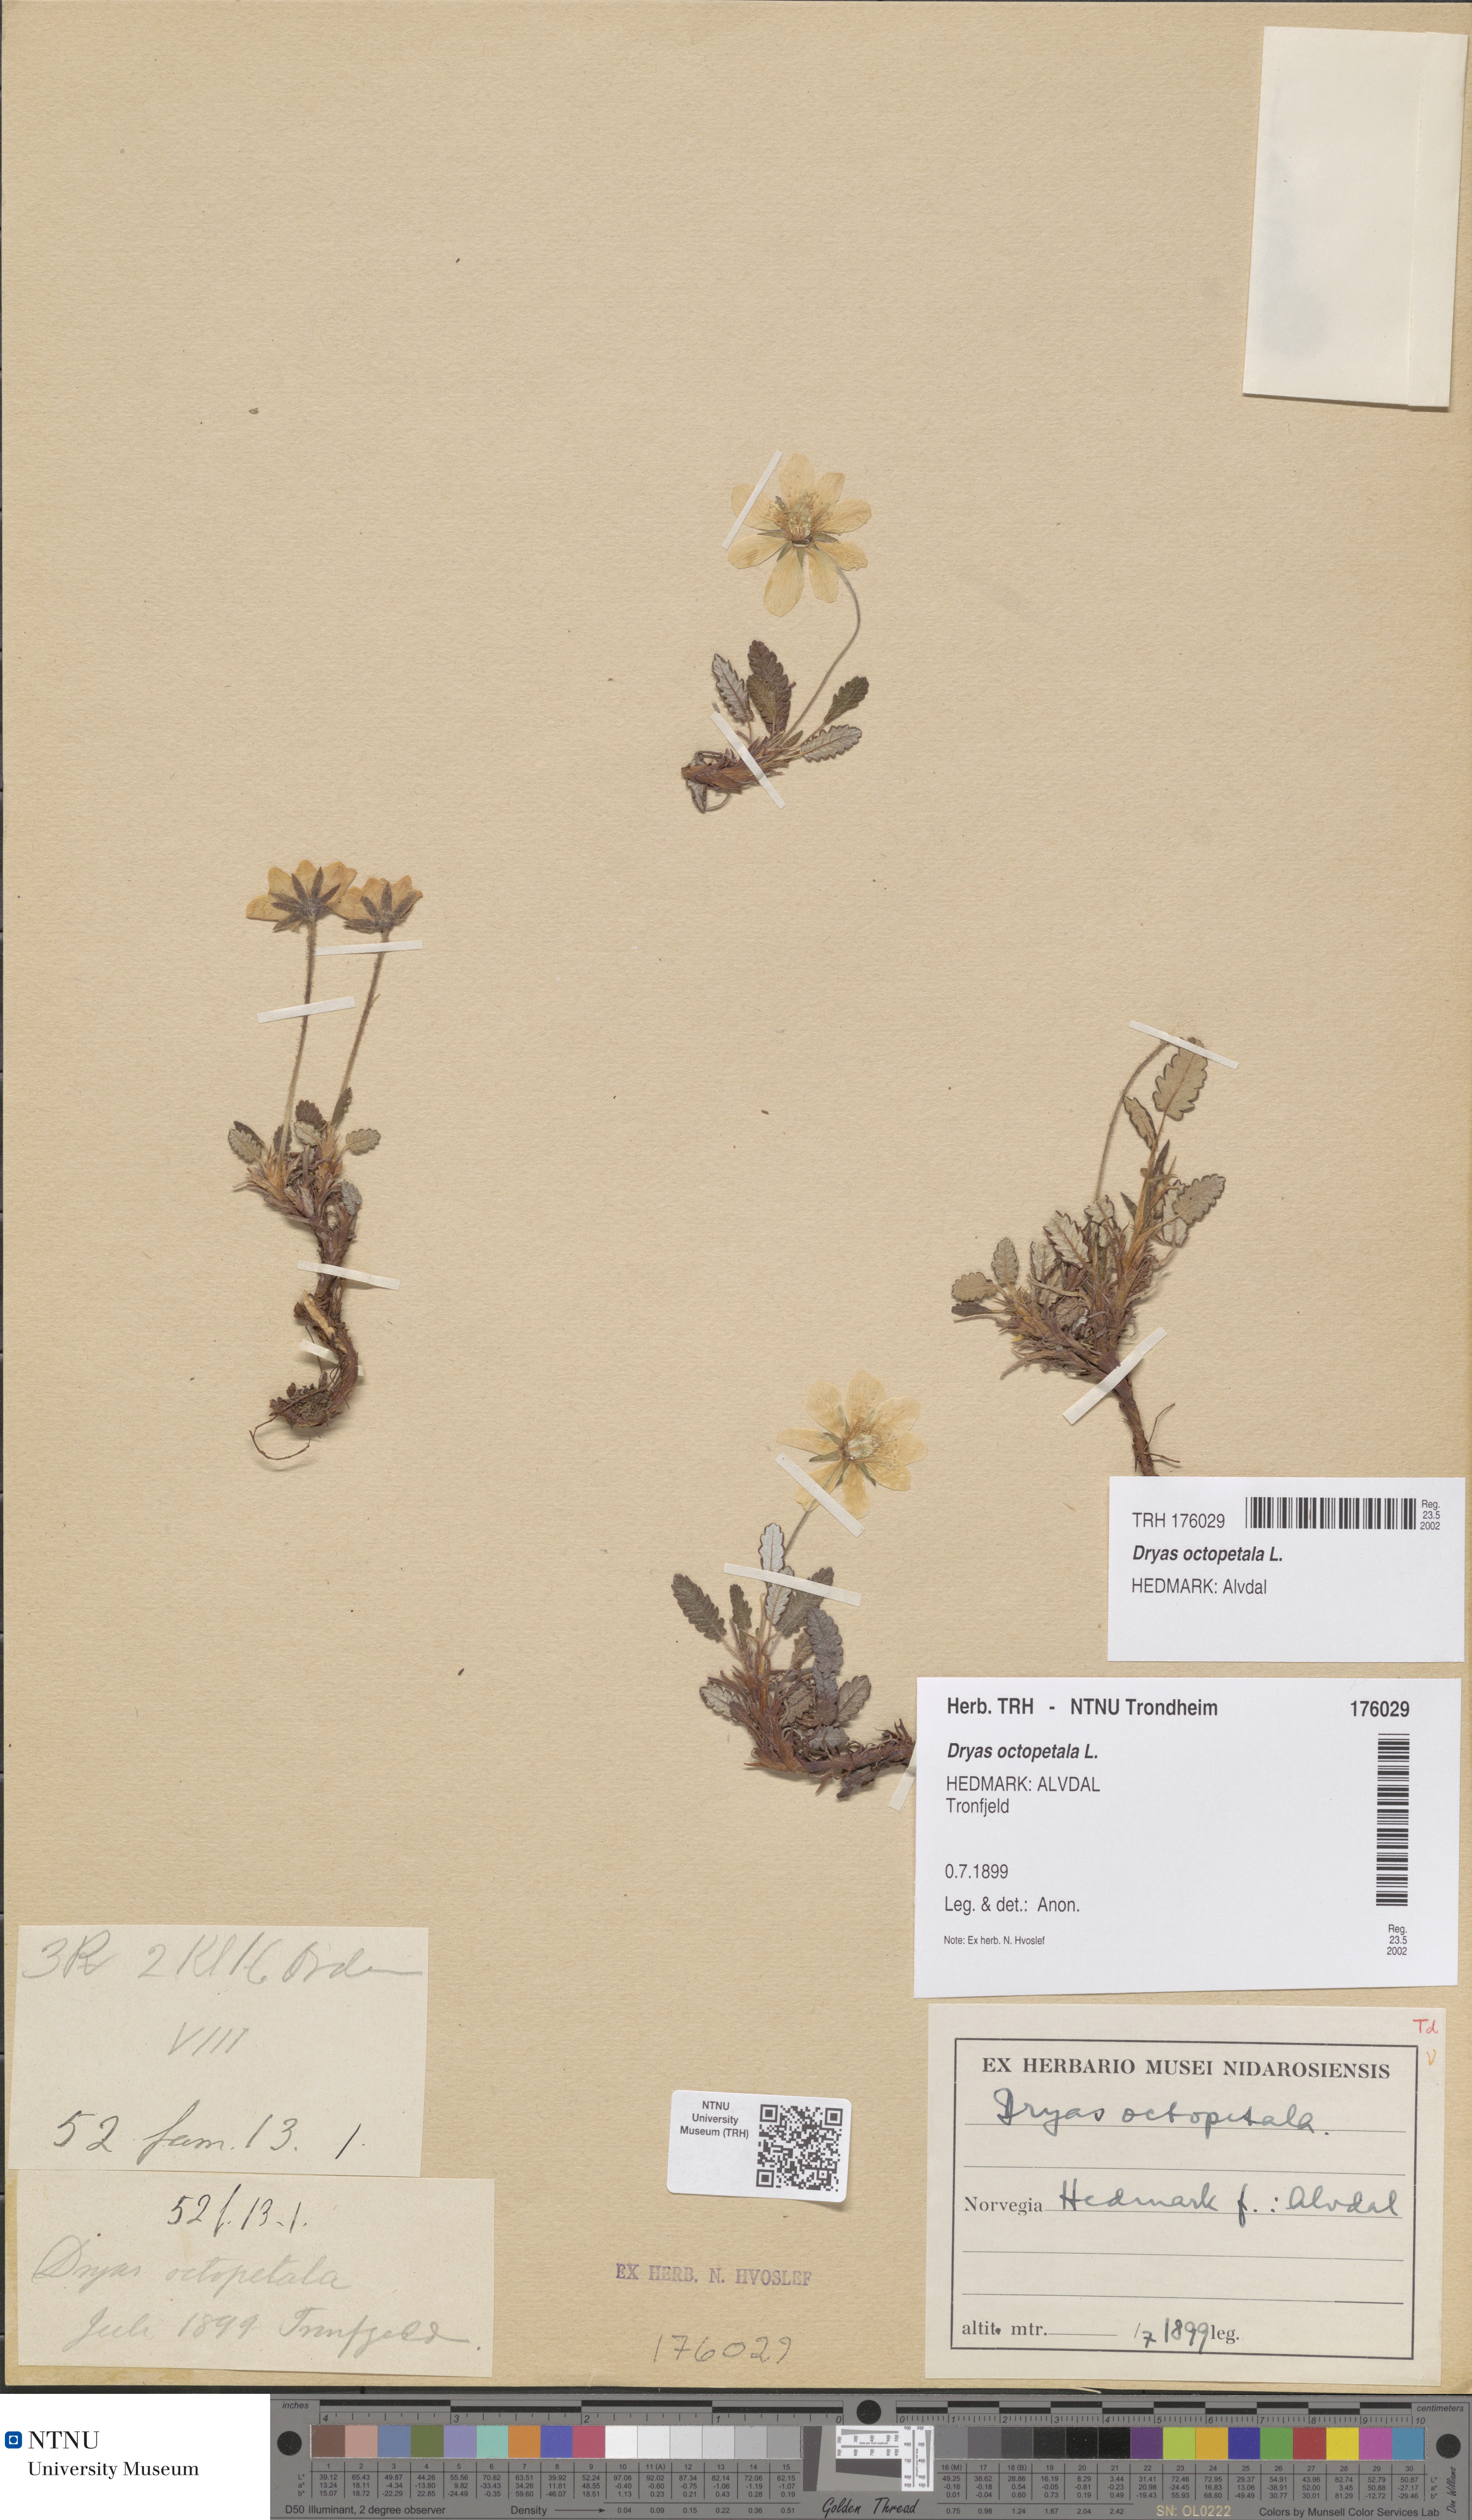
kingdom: Plantae
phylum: Tracheophyta
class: Magnoliopsida
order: Rosales
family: Rosaceae
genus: Dryas
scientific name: Dryas octopetala
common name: Eight-petal mountain-avens
